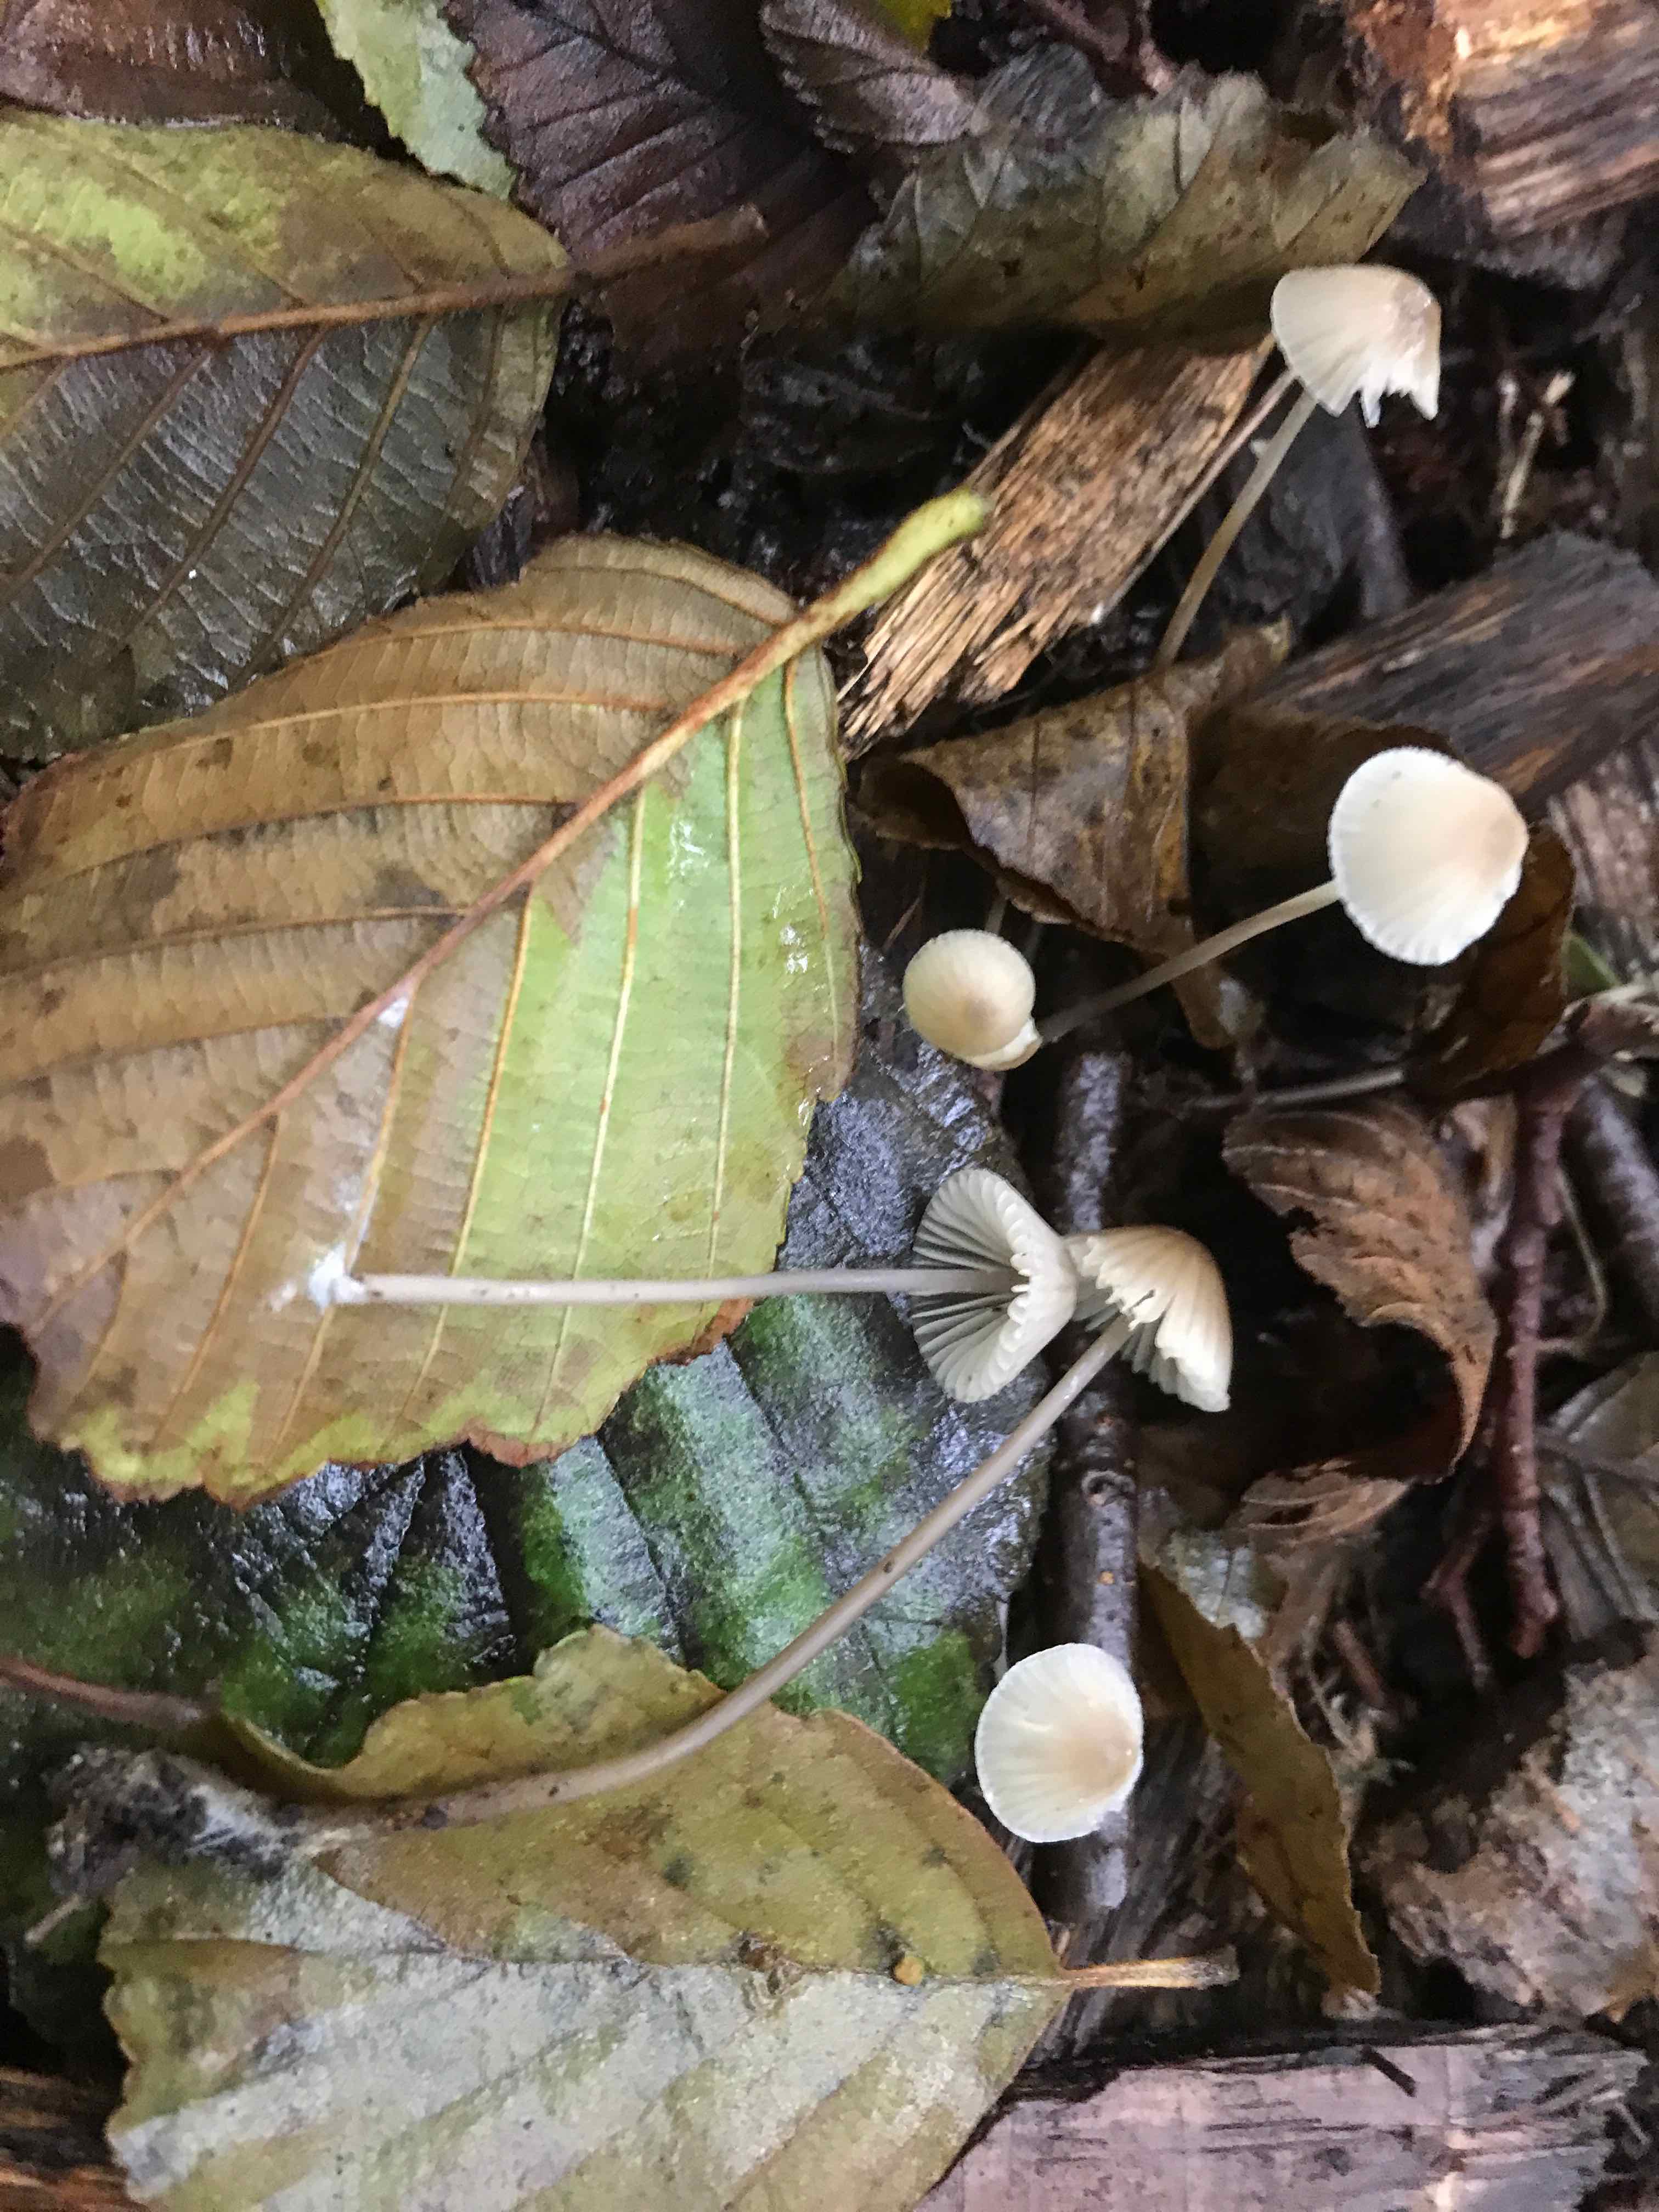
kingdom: Fungi
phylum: Basidiomycota
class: Agaricomycetes
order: Agaricales
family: Mycenaceae
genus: Mycena
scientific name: Mycena galopus
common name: hvidmælket huesvamp
